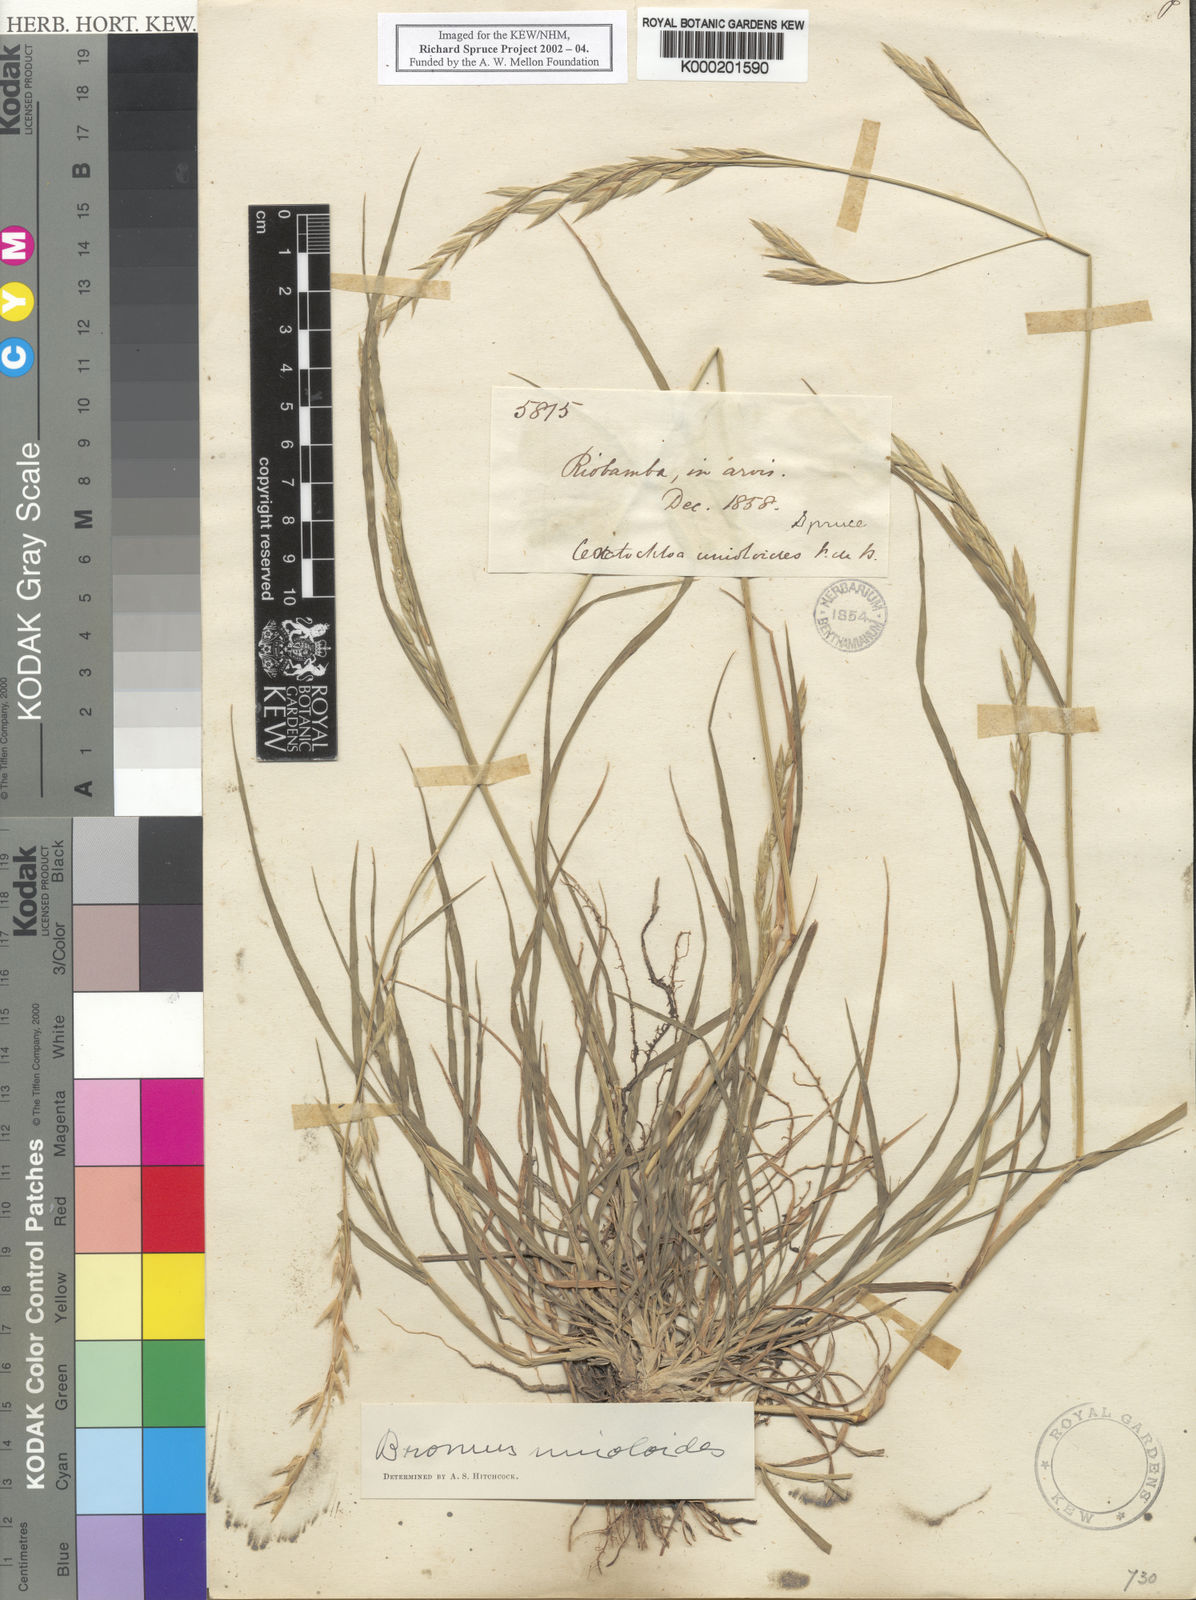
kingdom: Plantae
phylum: Tracheophyta
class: Liliopsida
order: Poales
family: Poaceae
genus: Bromus
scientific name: Bromus catharticus
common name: Rescuegrass
